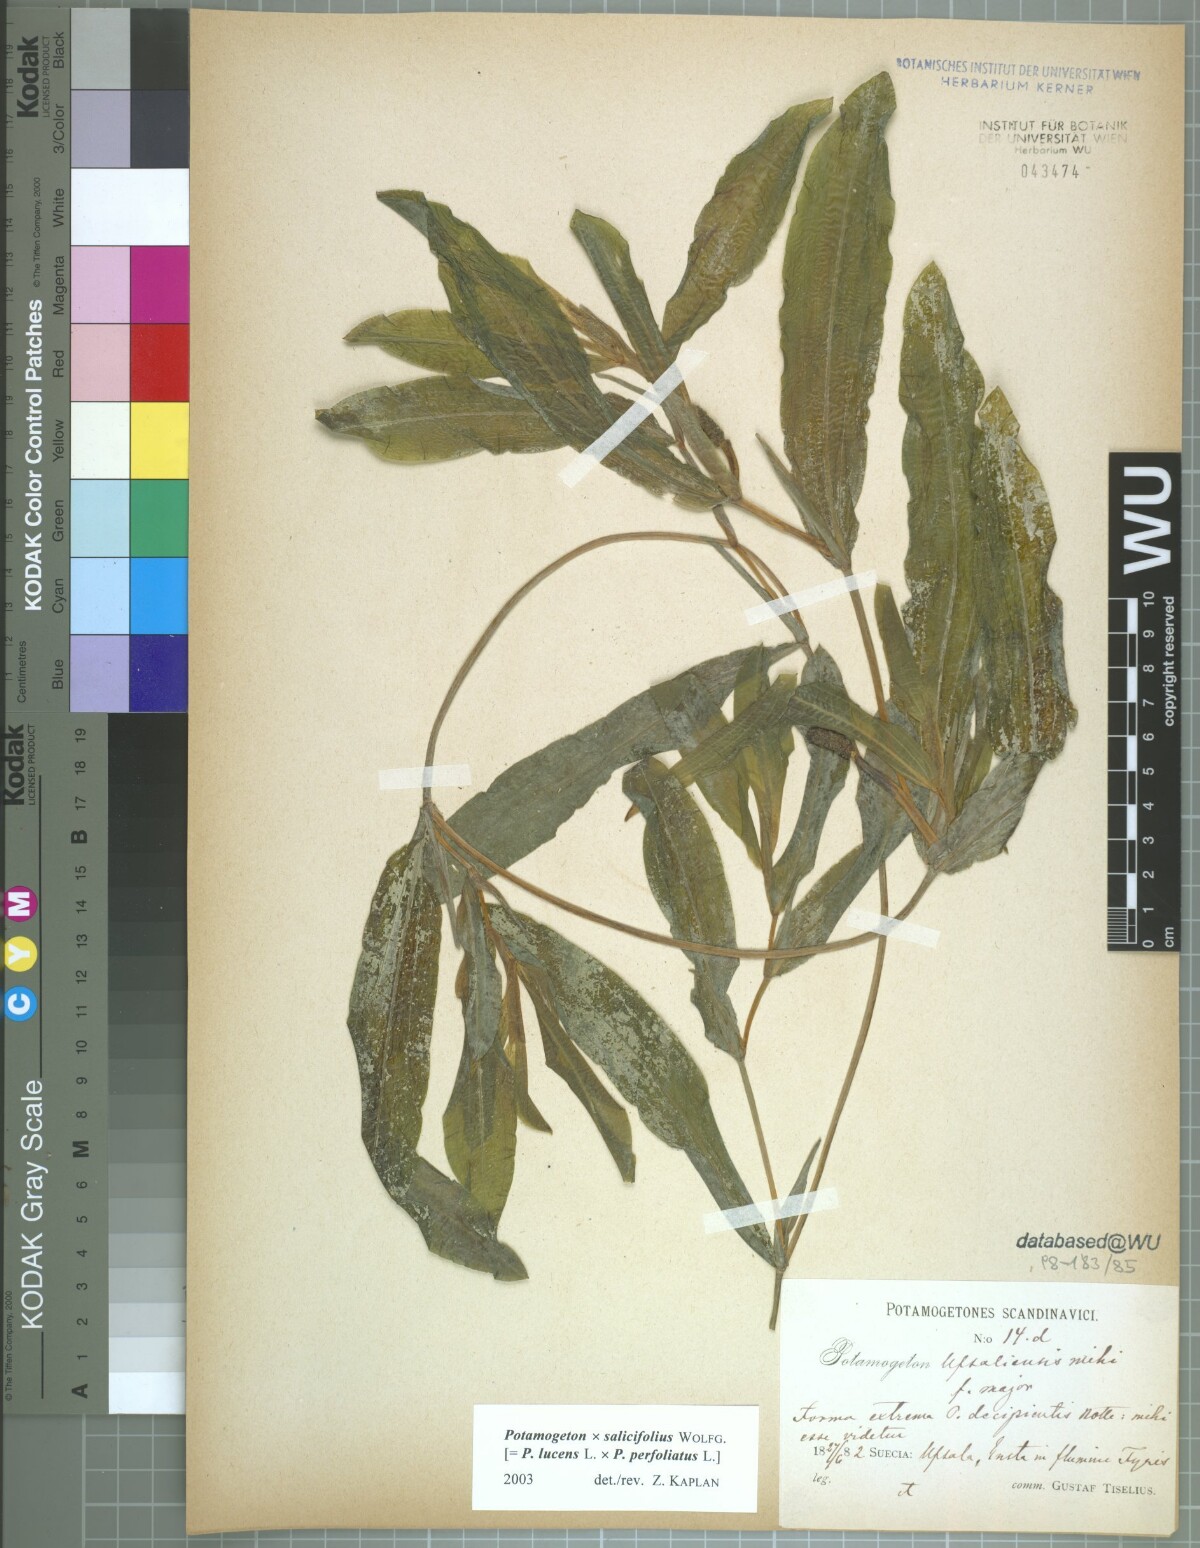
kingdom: Plantae
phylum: Tracheophyta
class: Liliopsida
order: Alismatales
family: Potamogetonaceae
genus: Potamogeton
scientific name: Potamogeton salicifolius
